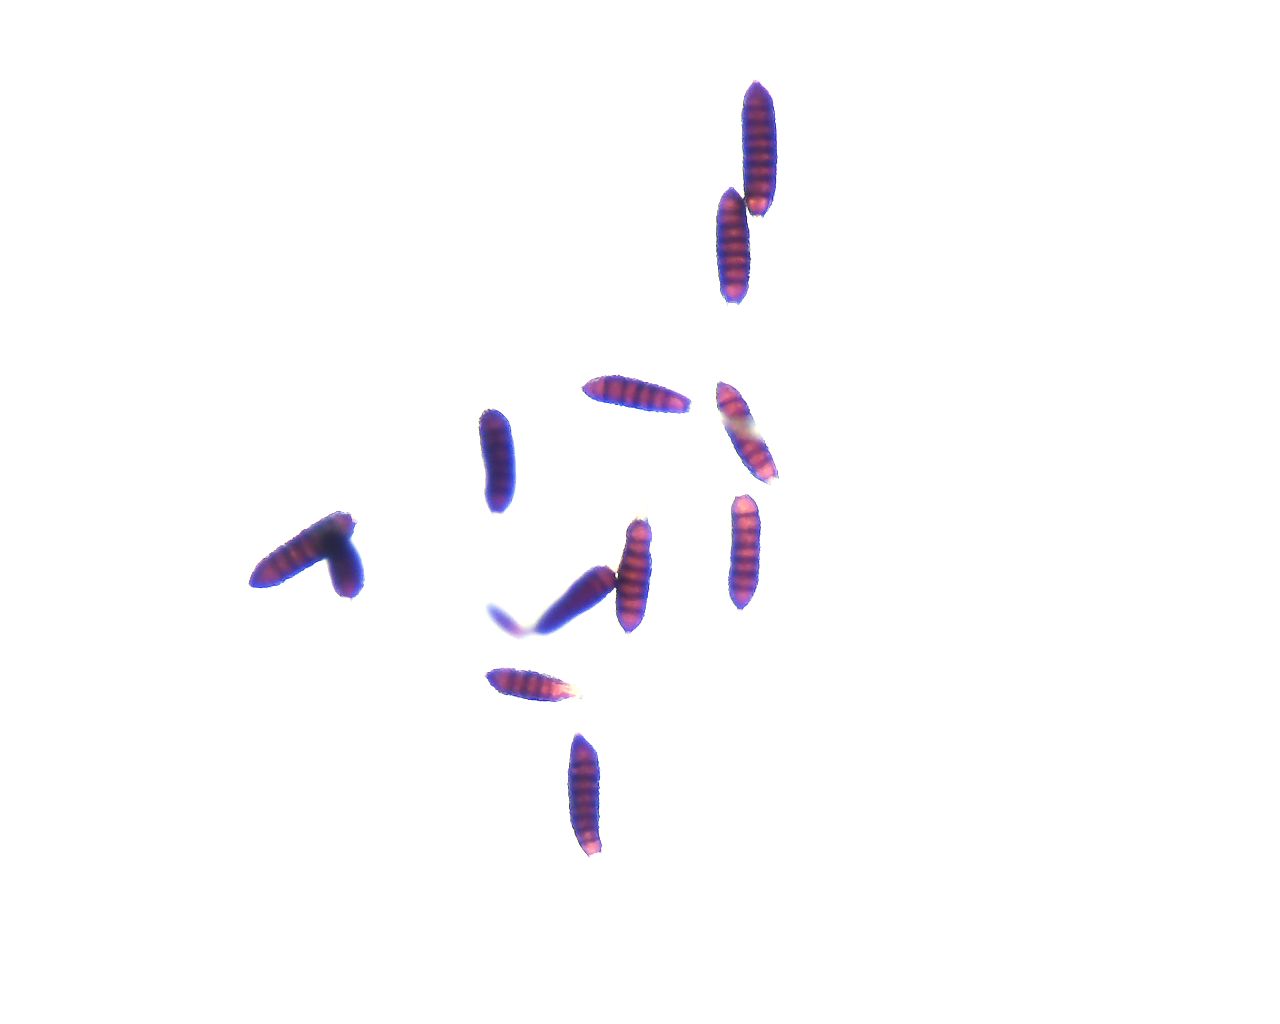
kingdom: Fungi
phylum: Basidiomycota
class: Pucciniomycetes
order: Pucciniales
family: Phragmidiaceae
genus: Phragmidium
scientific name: Phragmidium rubi-idaei
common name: hindbær-flercellerust
